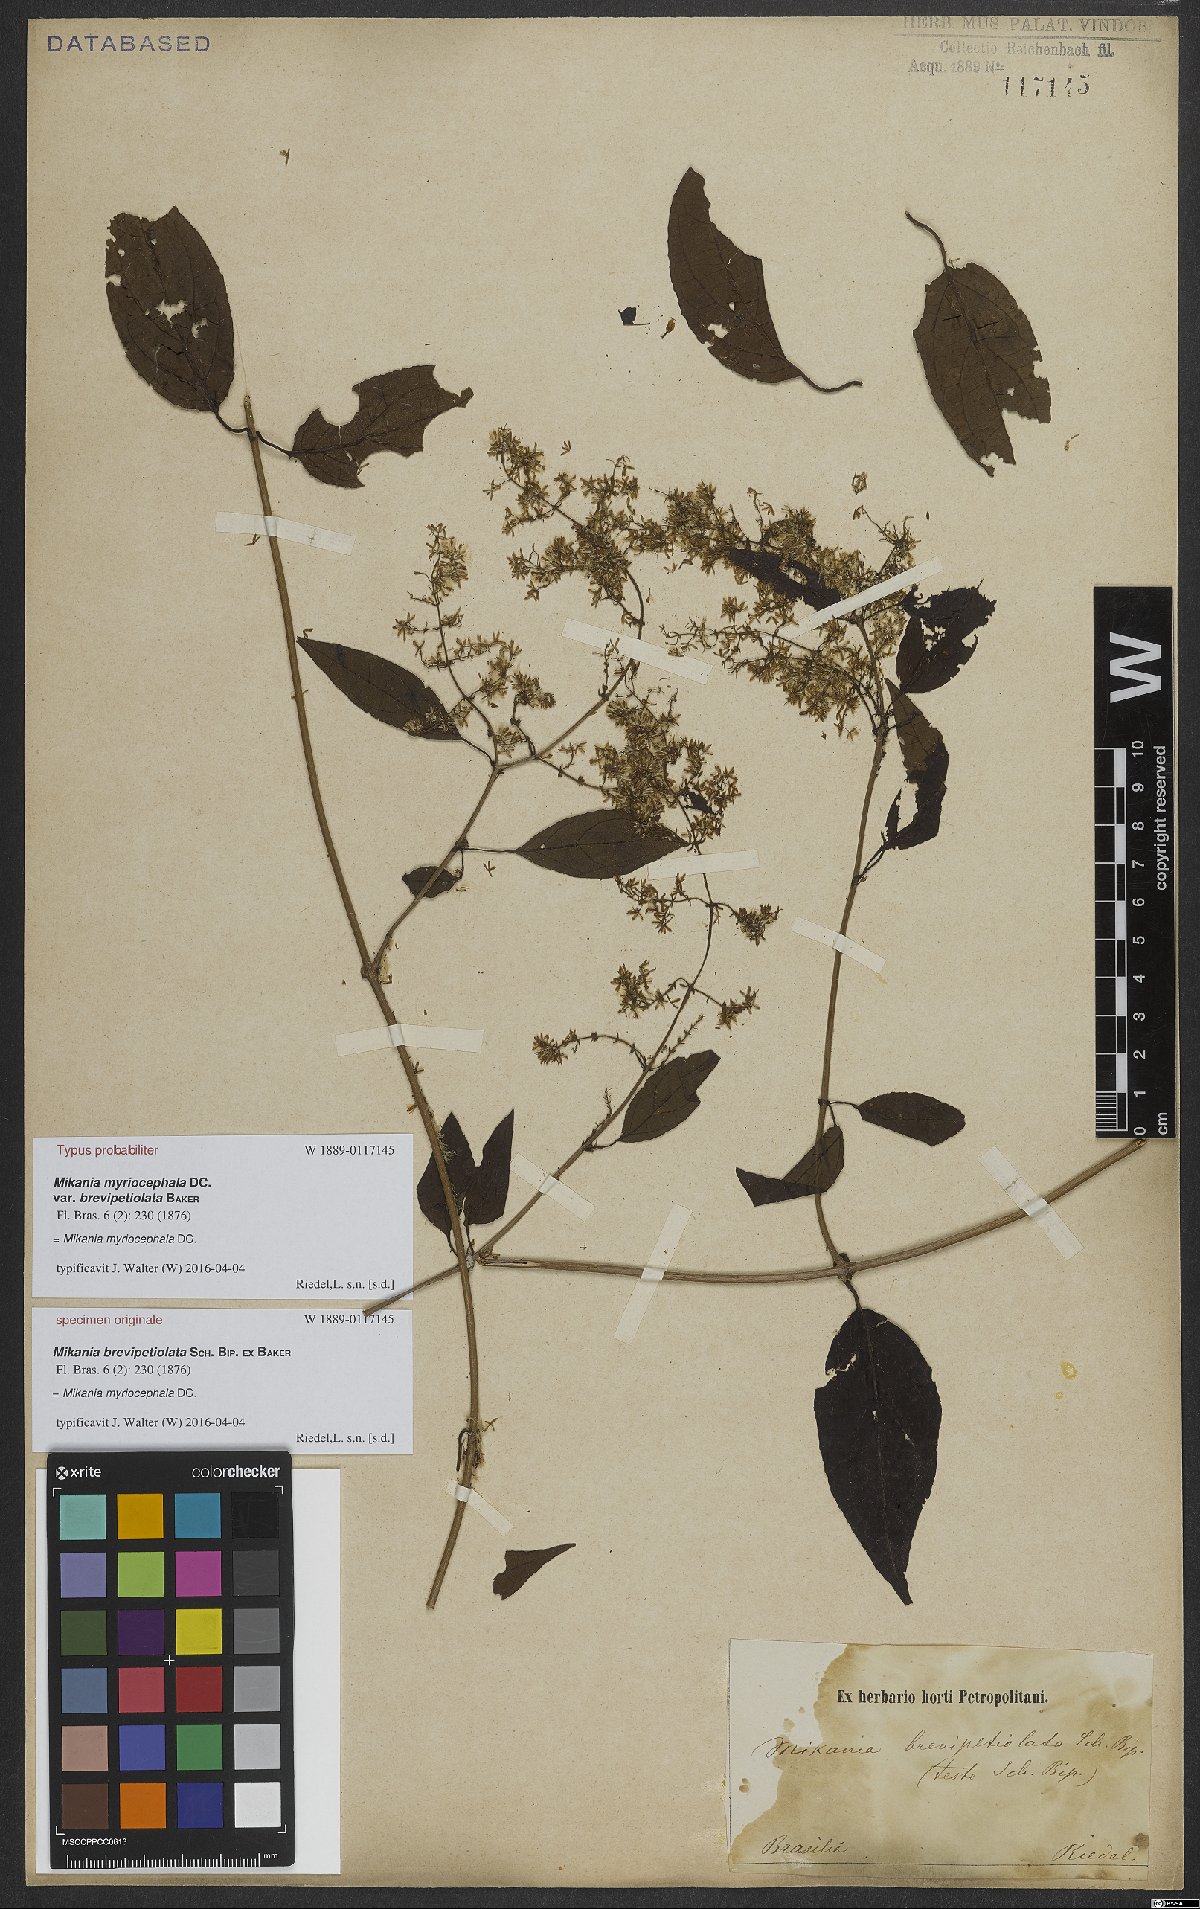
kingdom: Plantae
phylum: Tracheophyta
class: Magnoliopsida
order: Asterales
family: Asteraceae
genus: Mikania
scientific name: Mikania myriocephala
